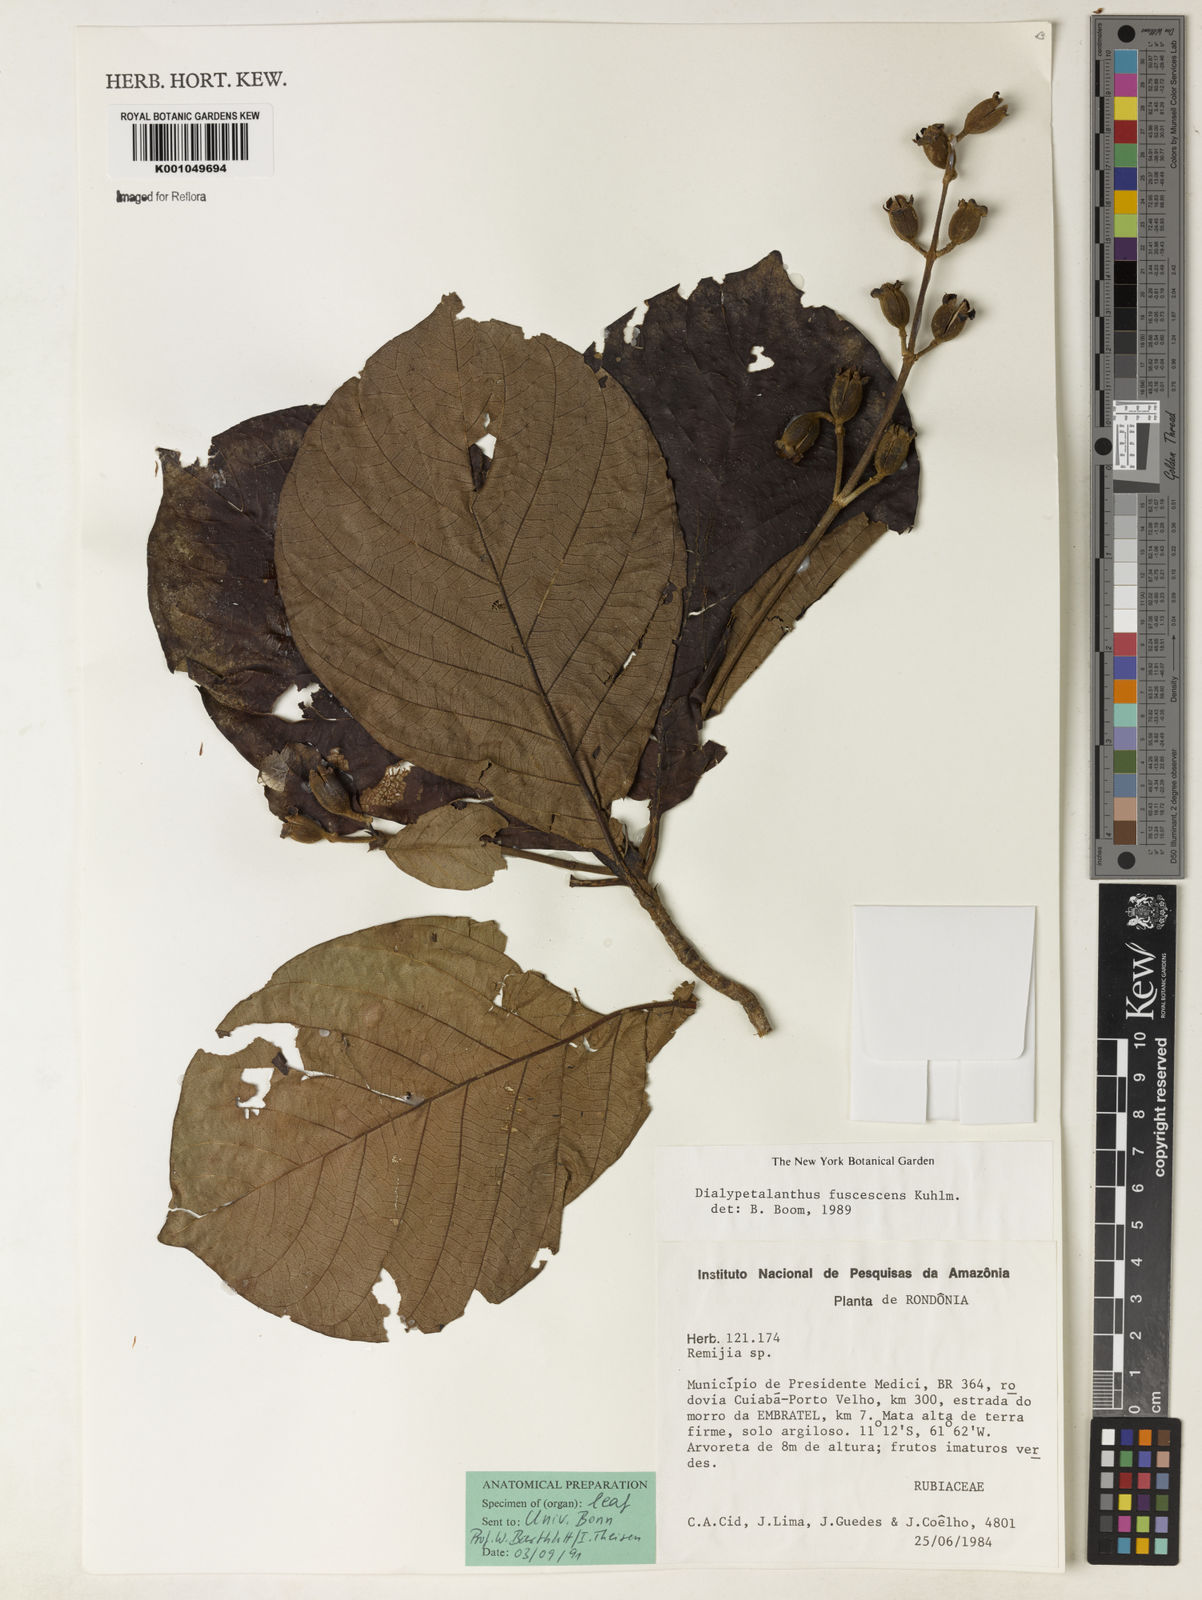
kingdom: Plantae
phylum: Tracheophyta
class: Magnoliopsida
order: Gentianales
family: Rubiaceae
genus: Dialypetalanthus
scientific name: Dialypetalanthus fuscescens
